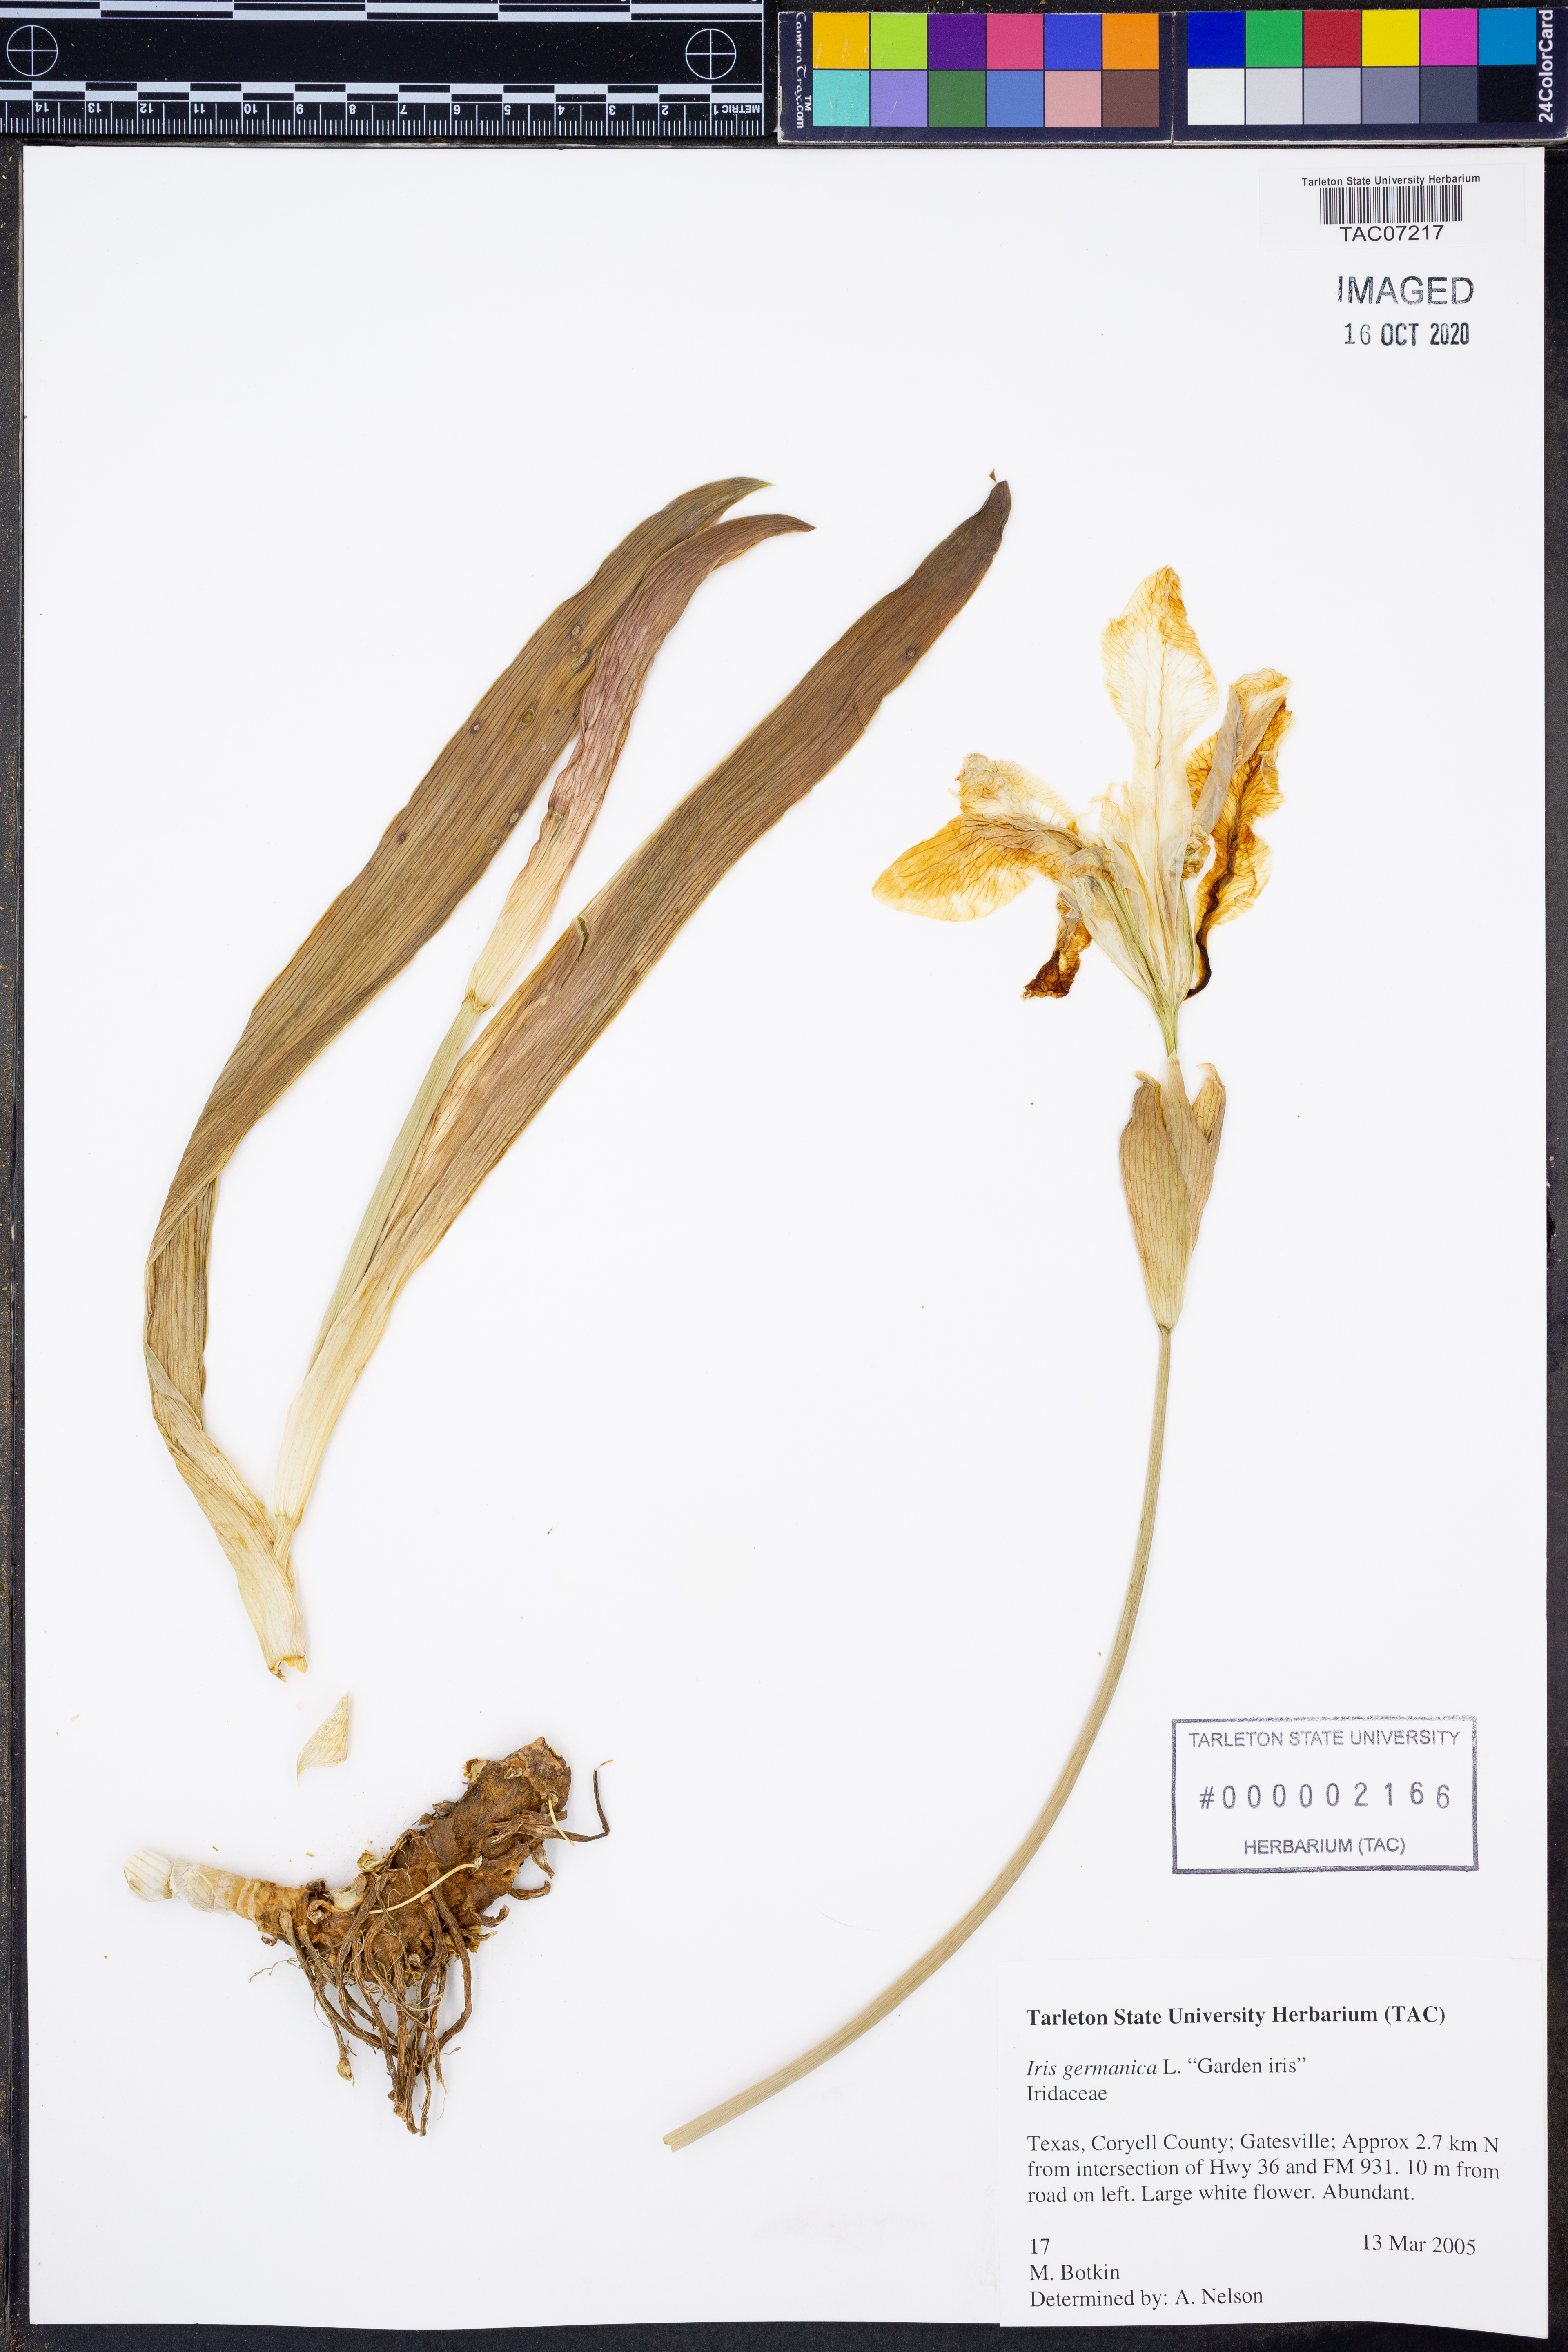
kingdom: Plantae
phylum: Tracheophyta
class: Liliopsida
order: Asparagales
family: Iridaceae
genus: Iris
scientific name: Iris germanica
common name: German iris
